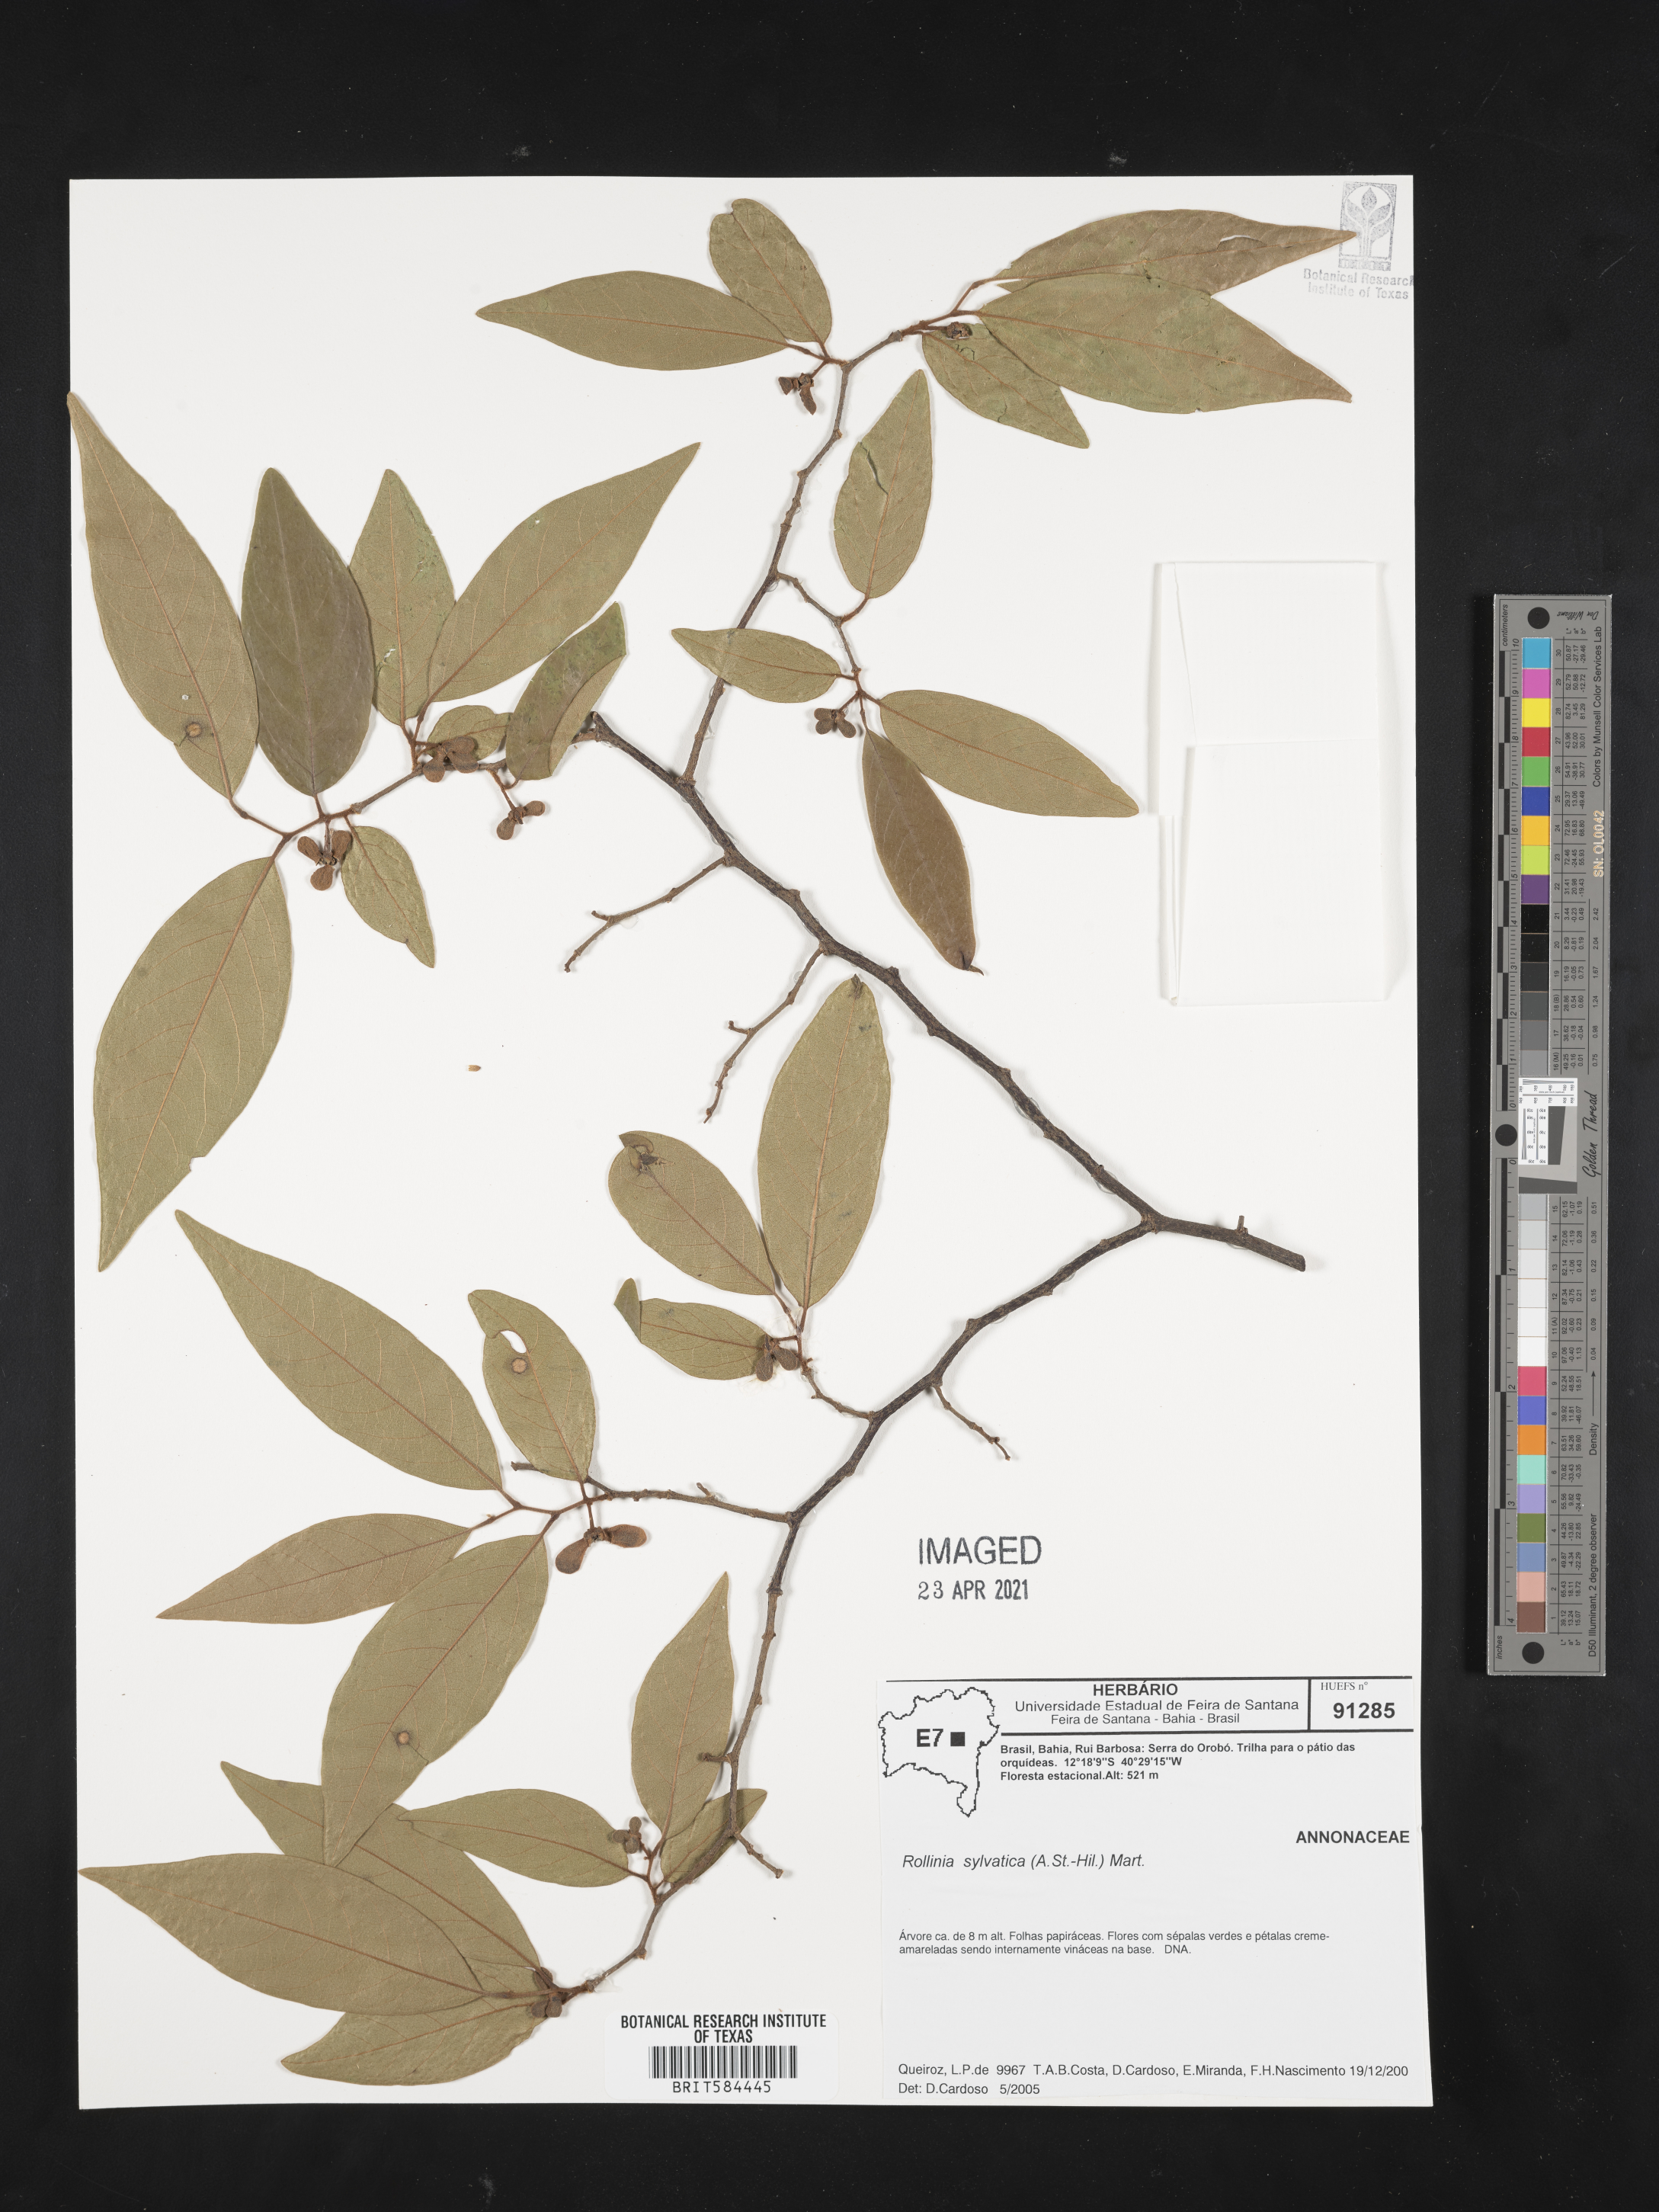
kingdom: Plantae
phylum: Tracheophyta
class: Magnoliopsida
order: Magnoliales
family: Annonaceae
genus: Annona
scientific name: Annona sylvatica
